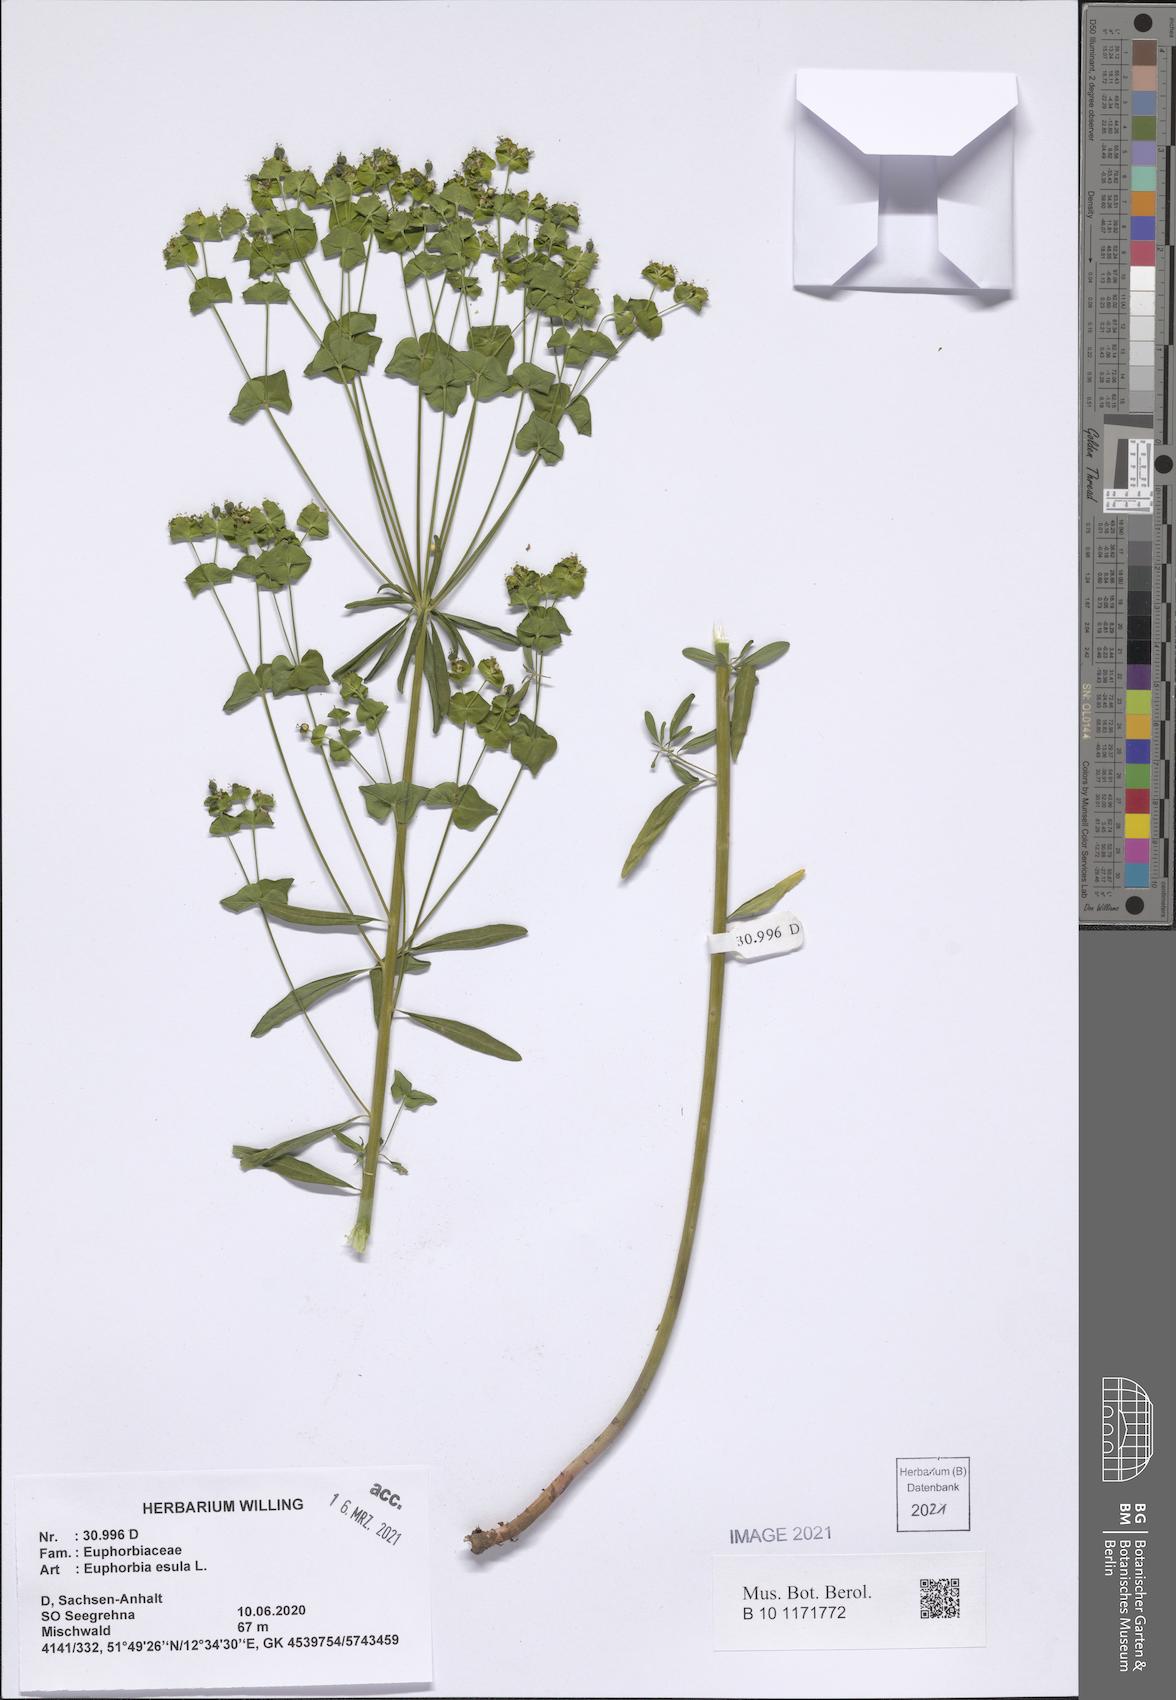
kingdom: Plantae
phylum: Tracheophyta
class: Magnoliopsida
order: Malpighiales
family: Euphorbiaceae
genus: Euphorbia
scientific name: Euphorbia esula
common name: Leafy spurge
